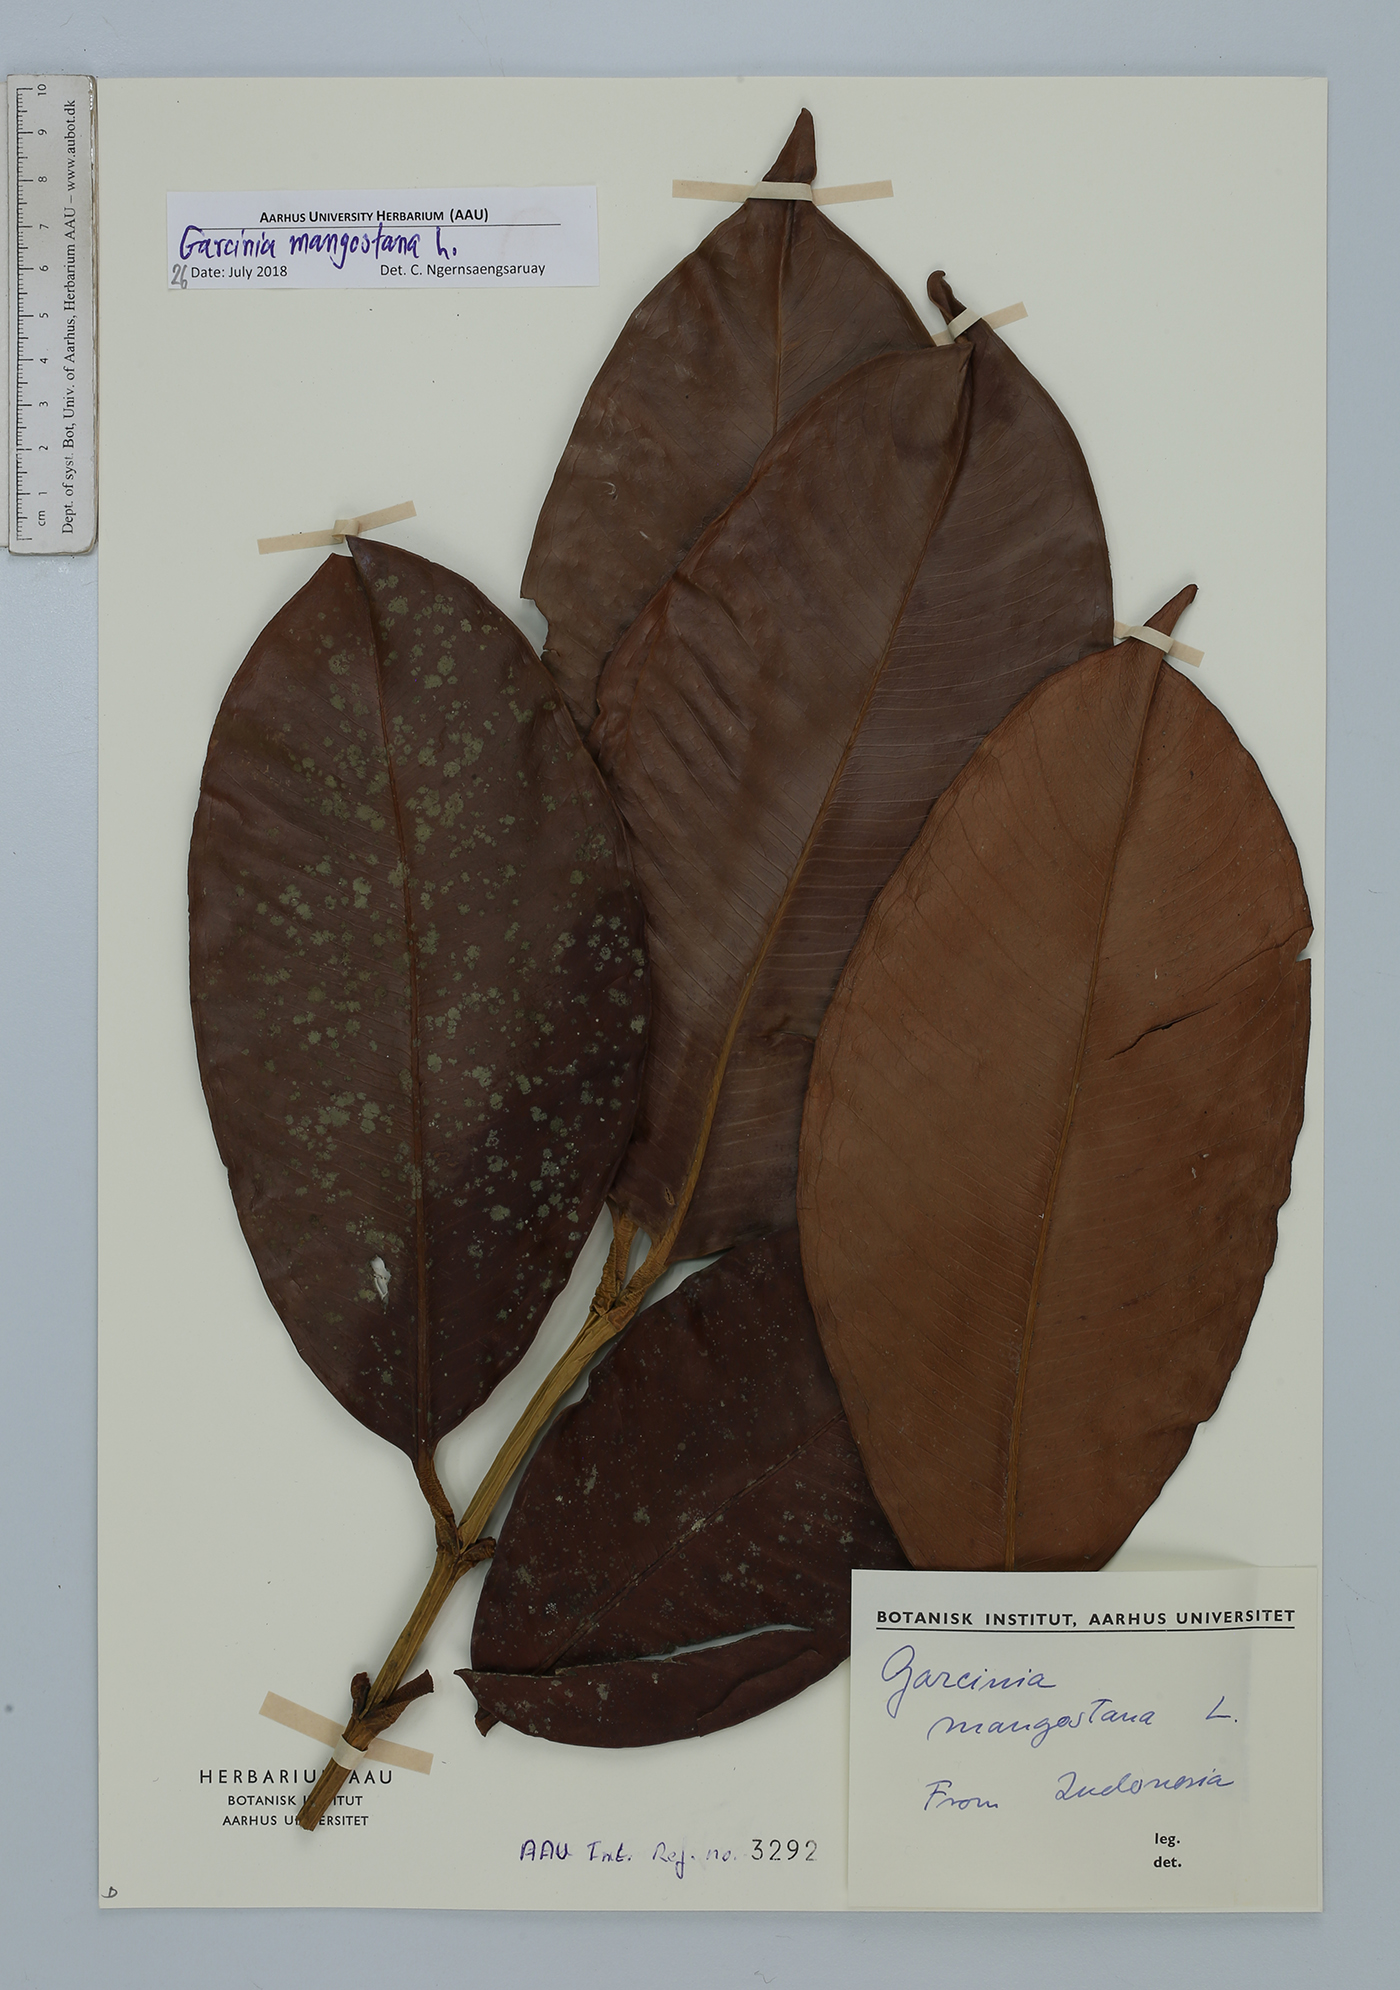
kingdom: Plantae
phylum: Tracheophyta
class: Magnoliopsida
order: Malpighiales
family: Clusiaceae
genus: Garcinia
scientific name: Garcinia mangostana
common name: Mangosteen
